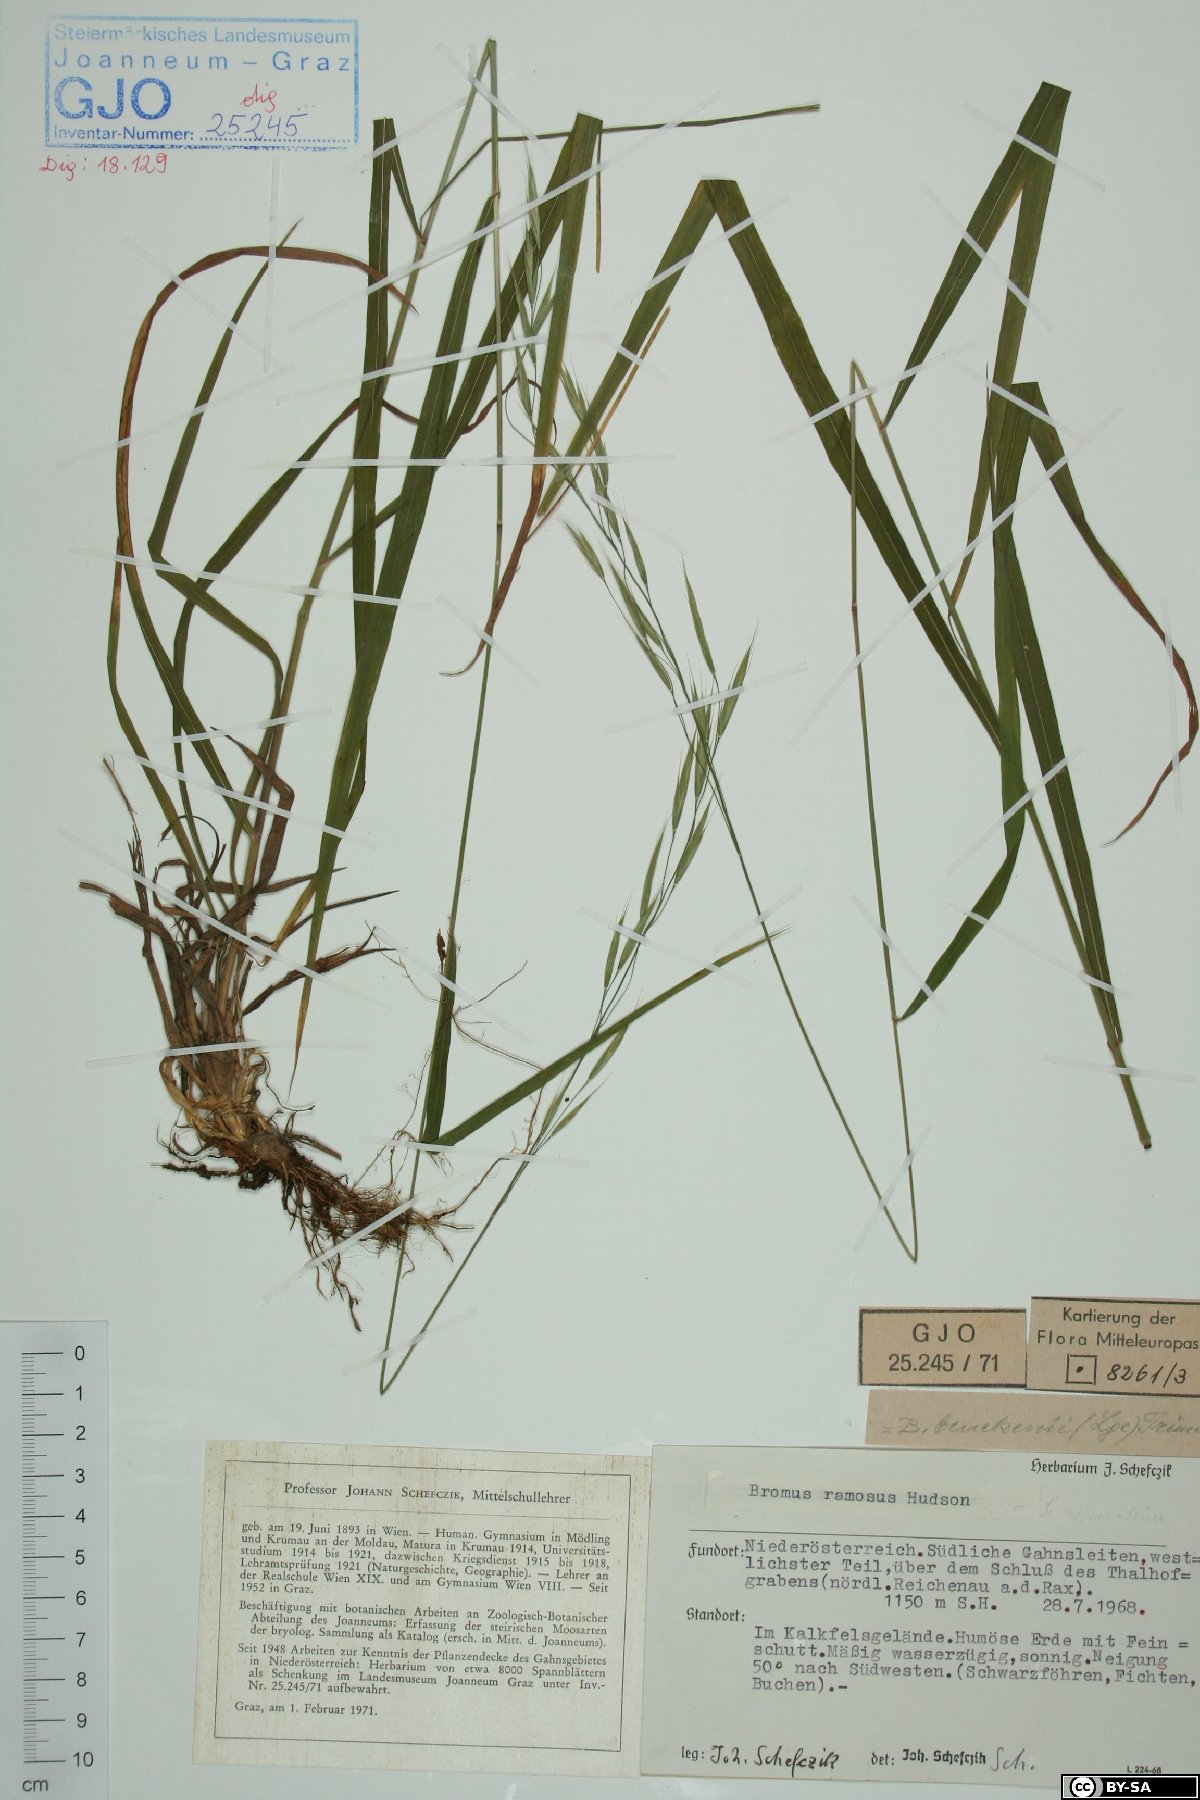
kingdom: Plantae
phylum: Tracheophyta
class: Liliopsida
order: Poales
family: Poaceae
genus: Bromus
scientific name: Bromus ramosus
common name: Hairy brome
